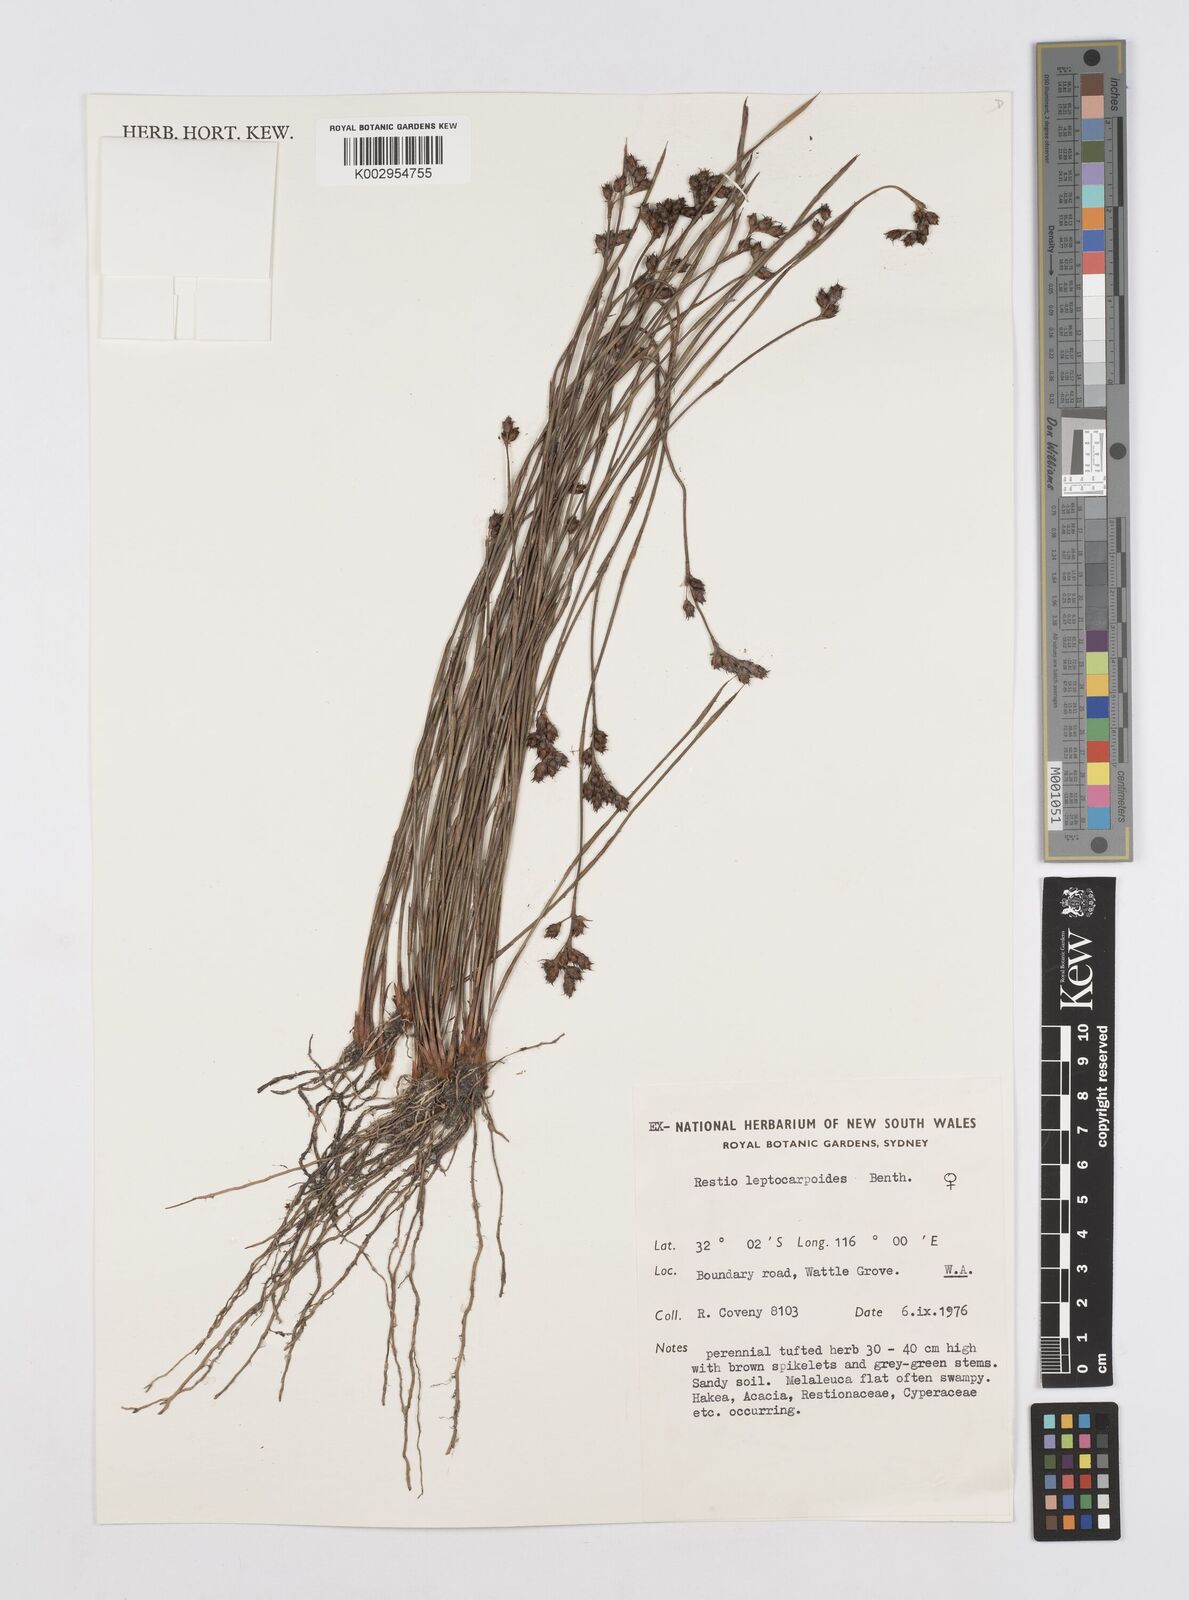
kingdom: Plantae
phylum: Tracheophyta
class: Liliopsida
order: Poales
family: Restionaceae
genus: Cytogonidium
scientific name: Cytogonidium leptocarpoides
